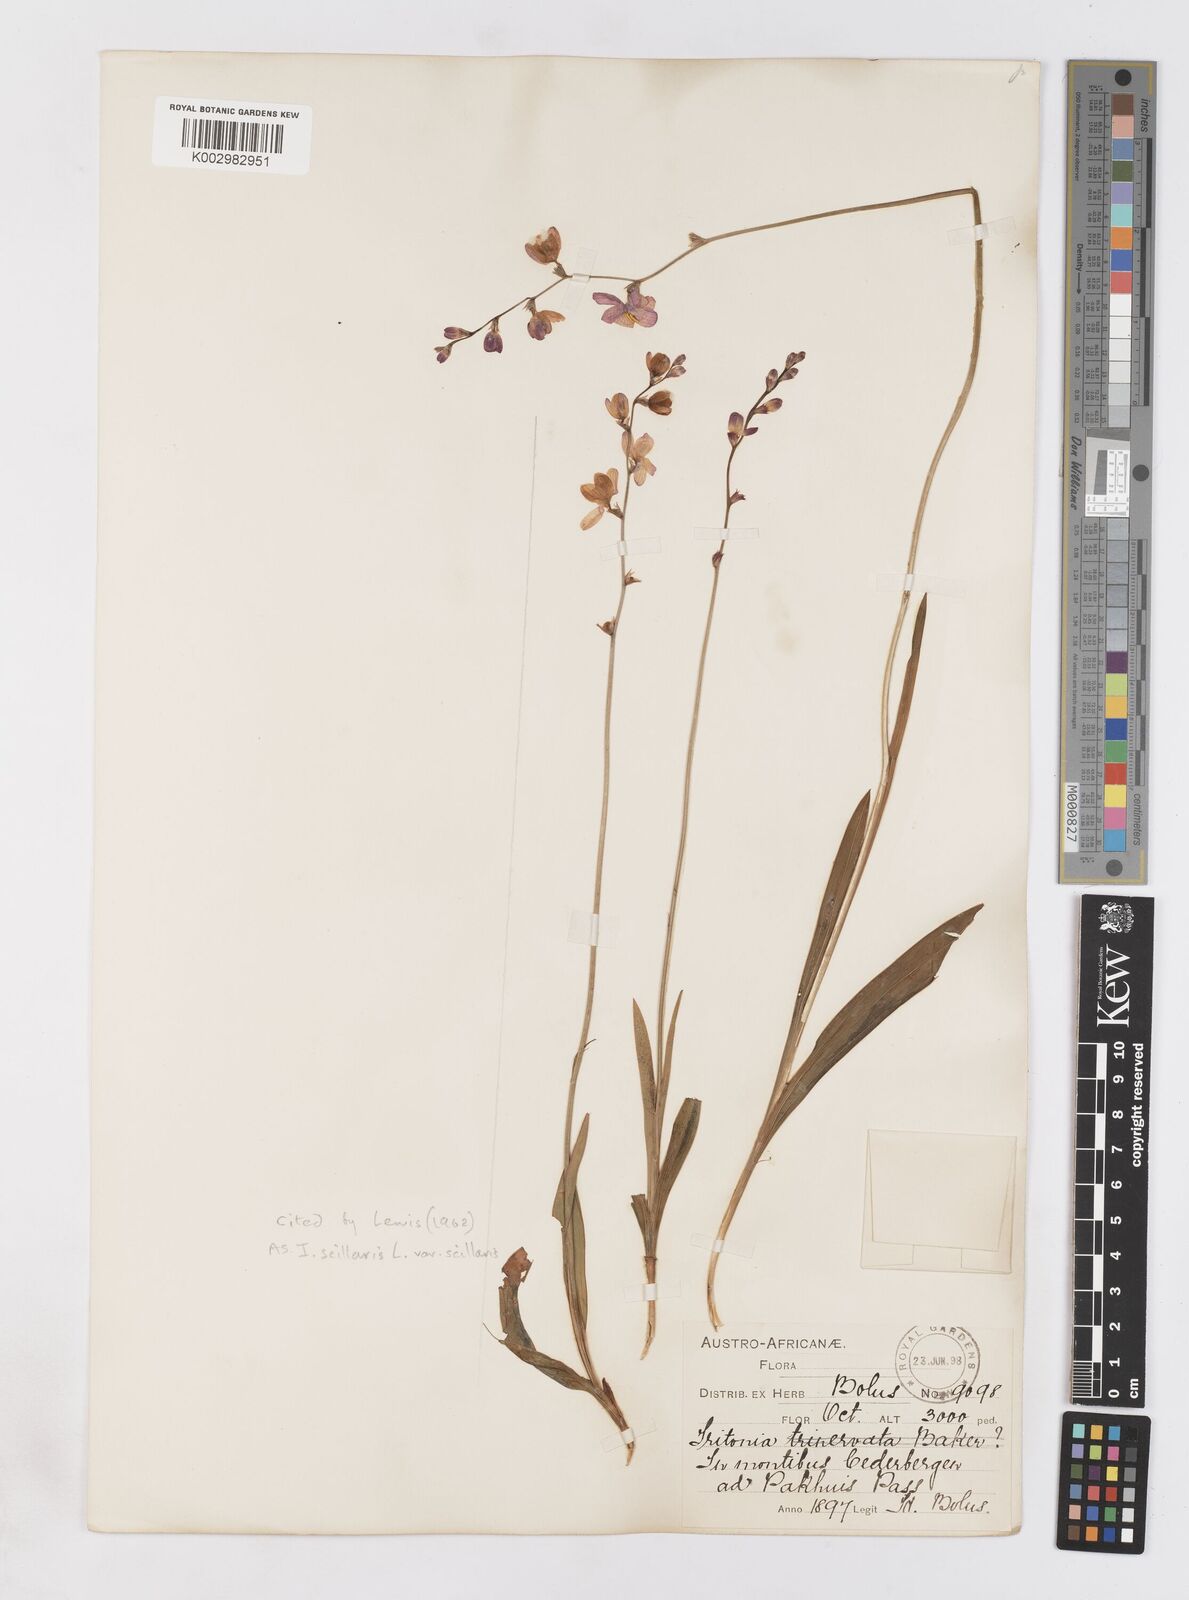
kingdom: Plantae
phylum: Tracheophyta
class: Liliopsida
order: Asparagales
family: Iridaceae
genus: Ixia
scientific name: Ixia scillaris
